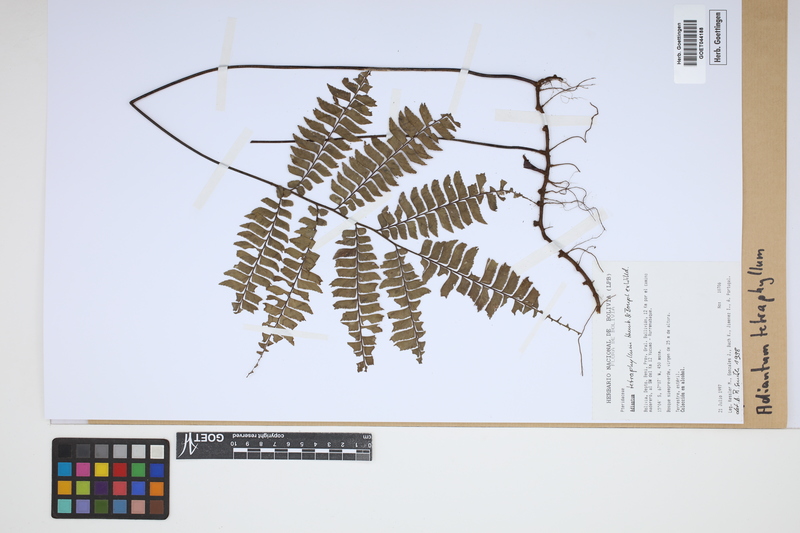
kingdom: Plantae
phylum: Tracheophyta
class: Polypodiopsida
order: Polypodiales
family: Pteridaceae
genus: Adiantum
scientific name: Adiantum tetraphyllum
